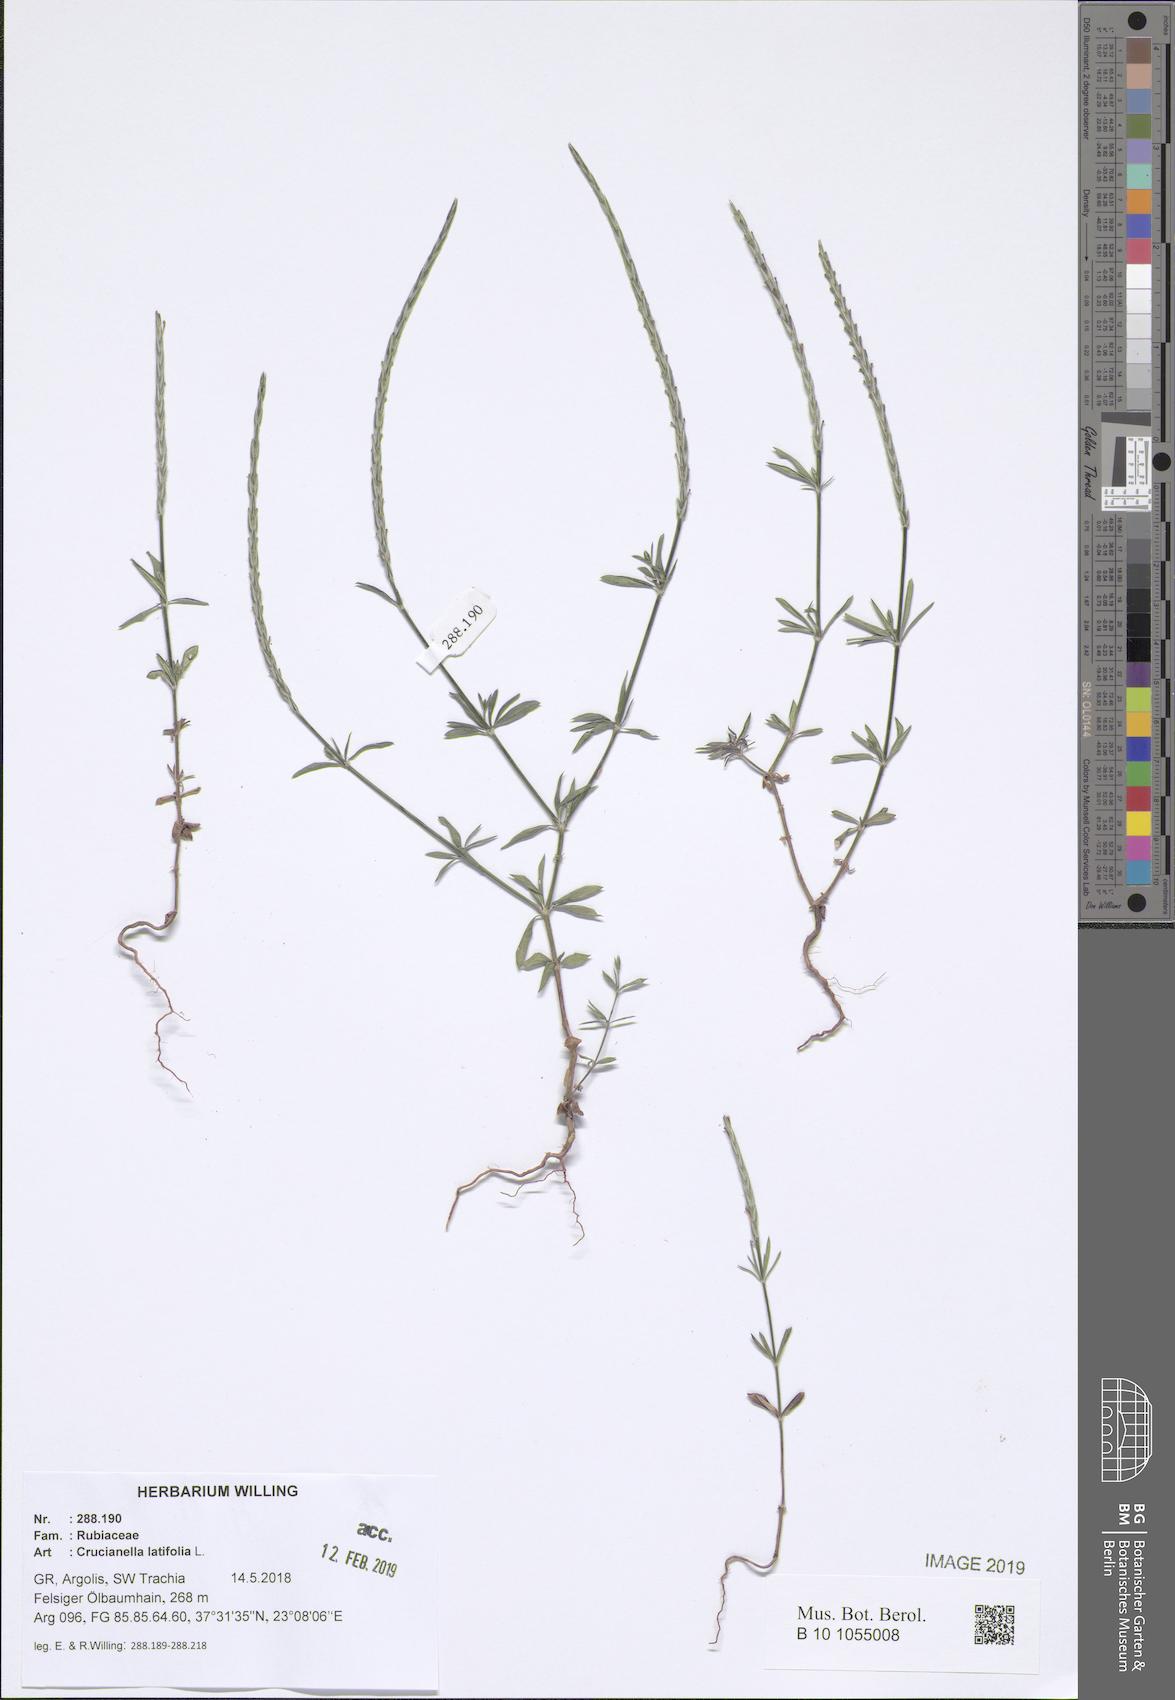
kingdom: Plantae
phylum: Tracheophyta
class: Magnoliopsida
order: Gentianales
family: Rubiaceae
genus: Crucianella
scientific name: Crucianella latifolia
